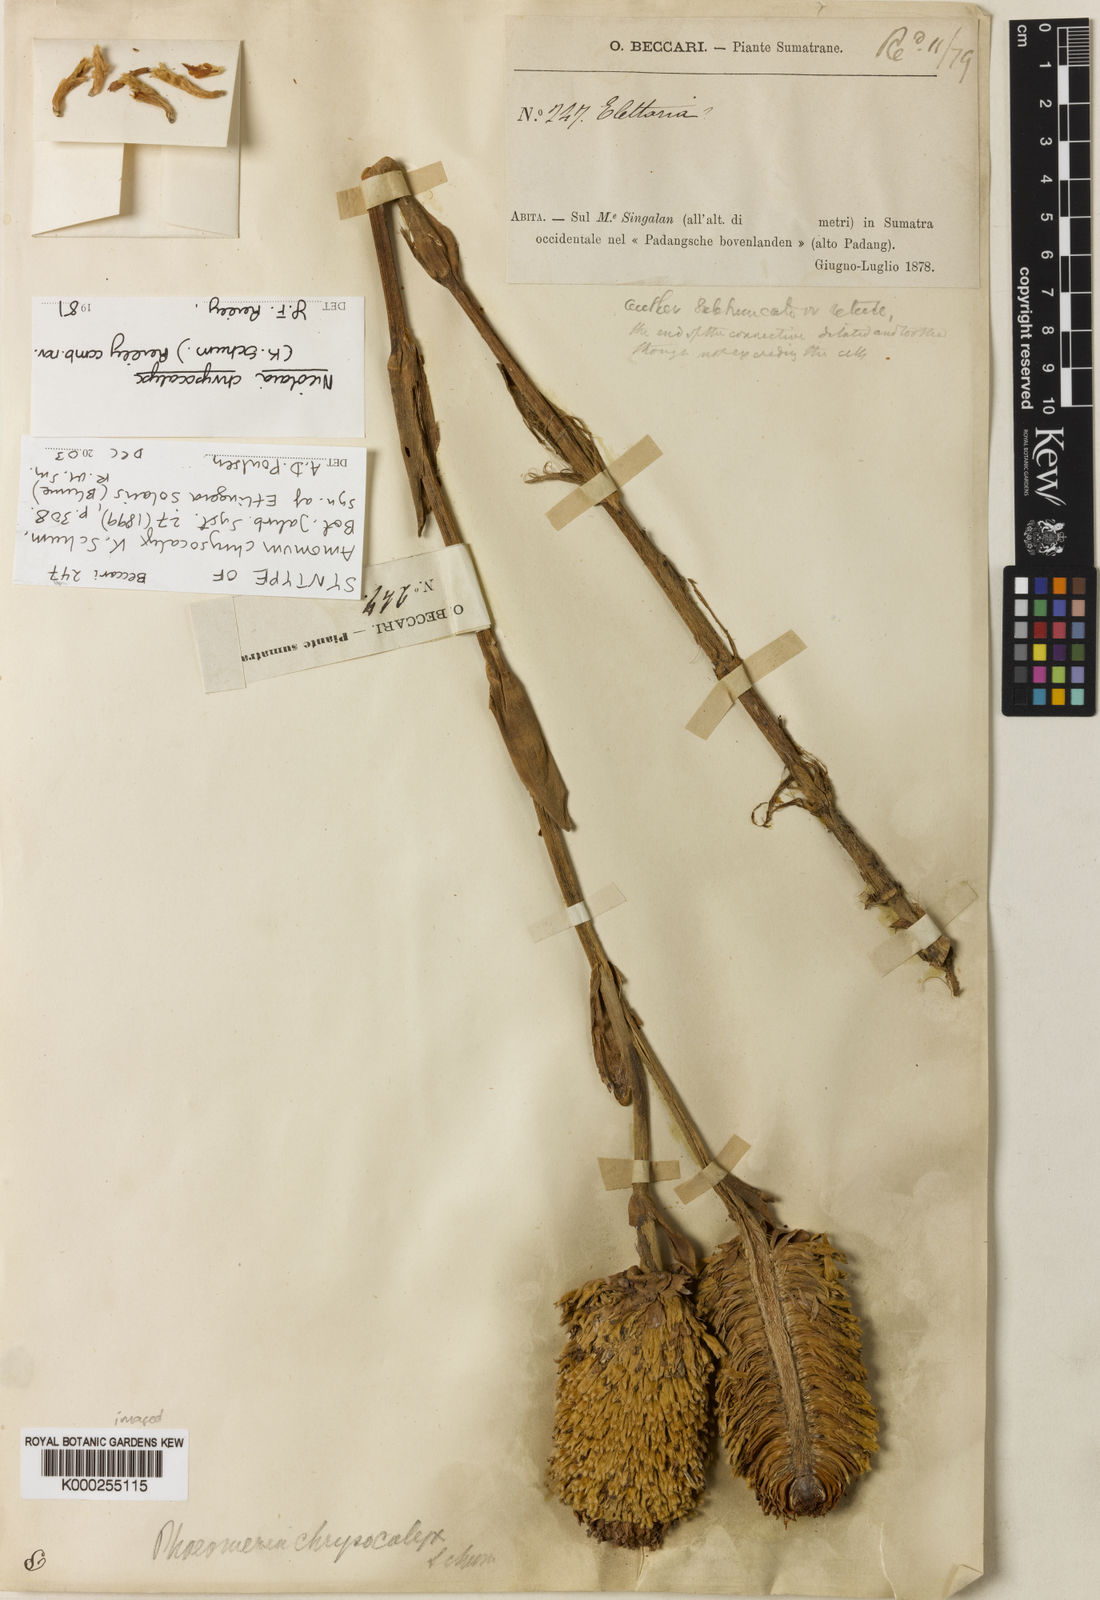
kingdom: Plantae
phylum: Tracheophyta
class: Liliopsida
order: Zingiberales
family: Zingiberaceae
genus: Etlingera
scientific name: Etlingera solaris
